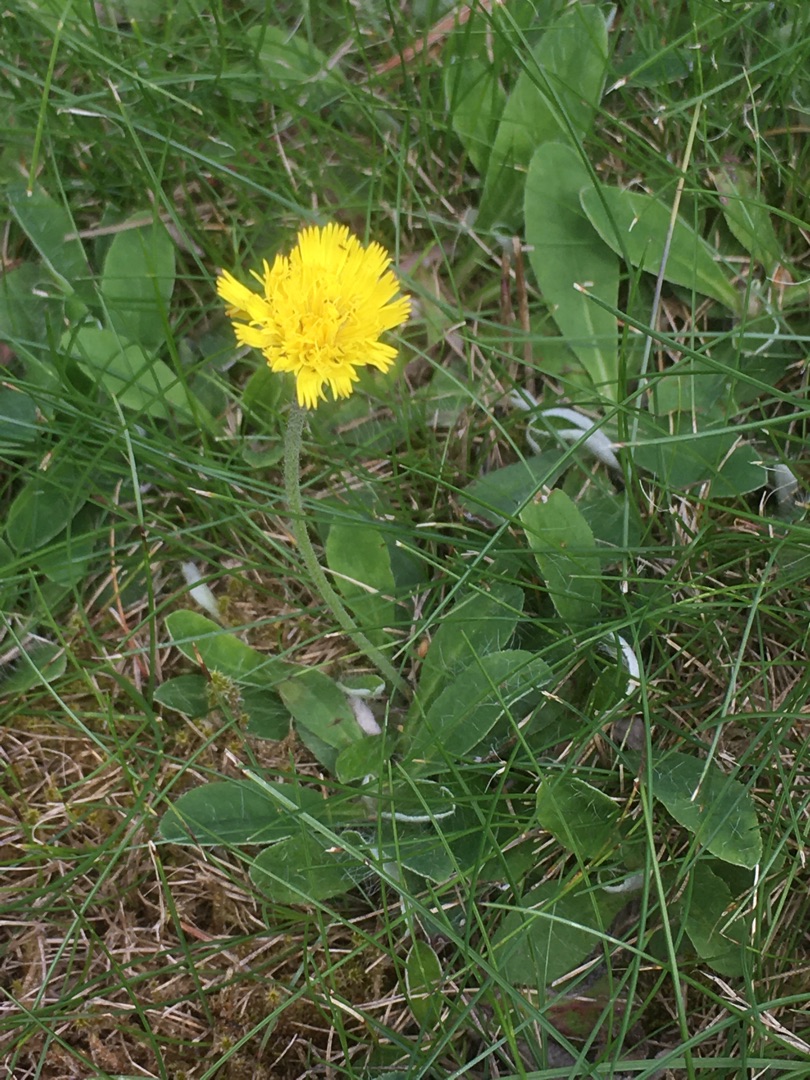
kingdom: Plantae
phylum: Tracheophyta
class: Magnoliopsida
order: Asterales
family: Asteraceae
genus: Pilosella
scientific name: Pilosella officinarum
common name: Håret høgeurt
